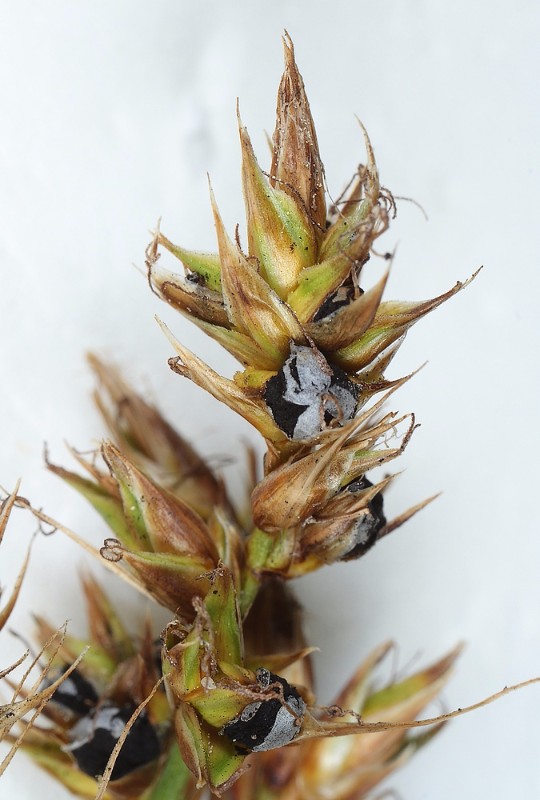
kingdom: Fungi
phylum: Basidiomycota
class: Ustilaginomycetes
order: Ustilaginales
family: Anthracoideaceae
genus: Anthracoidea
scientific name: Anthracoidea arenariae
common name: sandstar-brand
